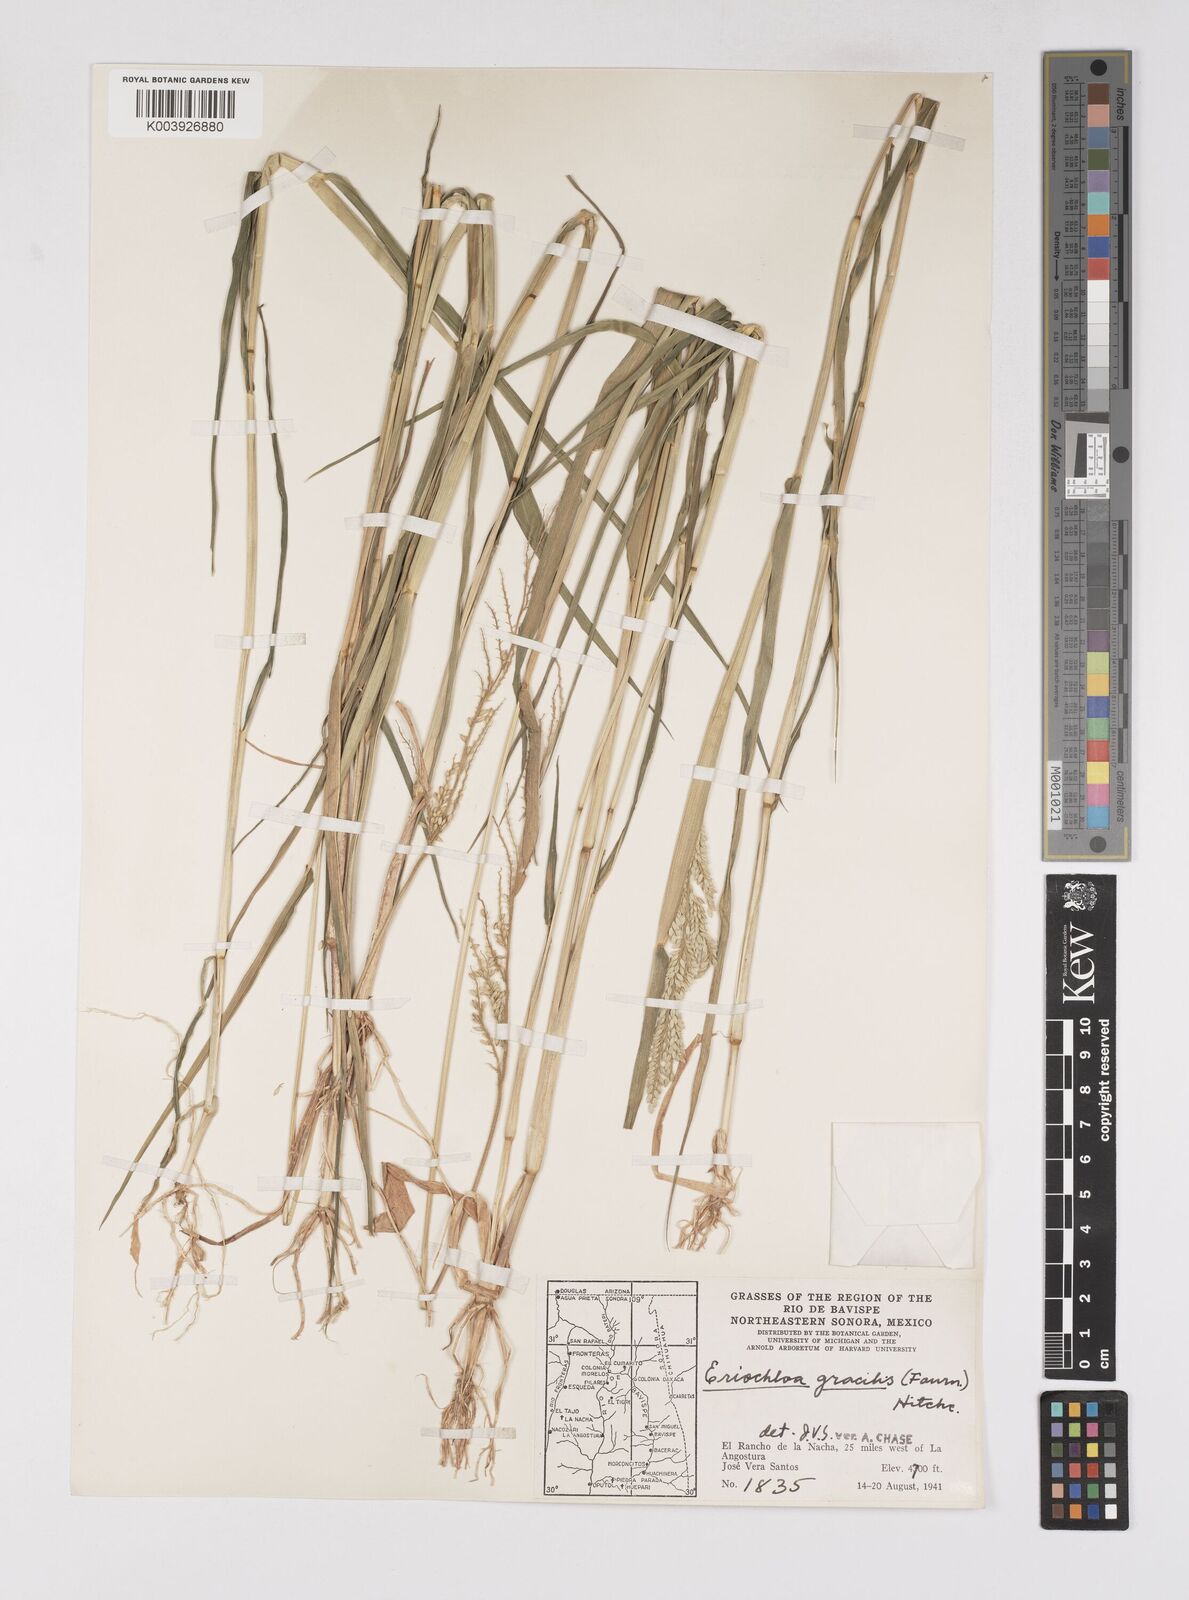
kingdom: Plantae
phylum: Tracheophyta
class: Liliopsida
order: Poales
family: Poaceae
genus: Eriochloa
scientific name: Eriochloa acuminata
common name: Southwestern cup grass
